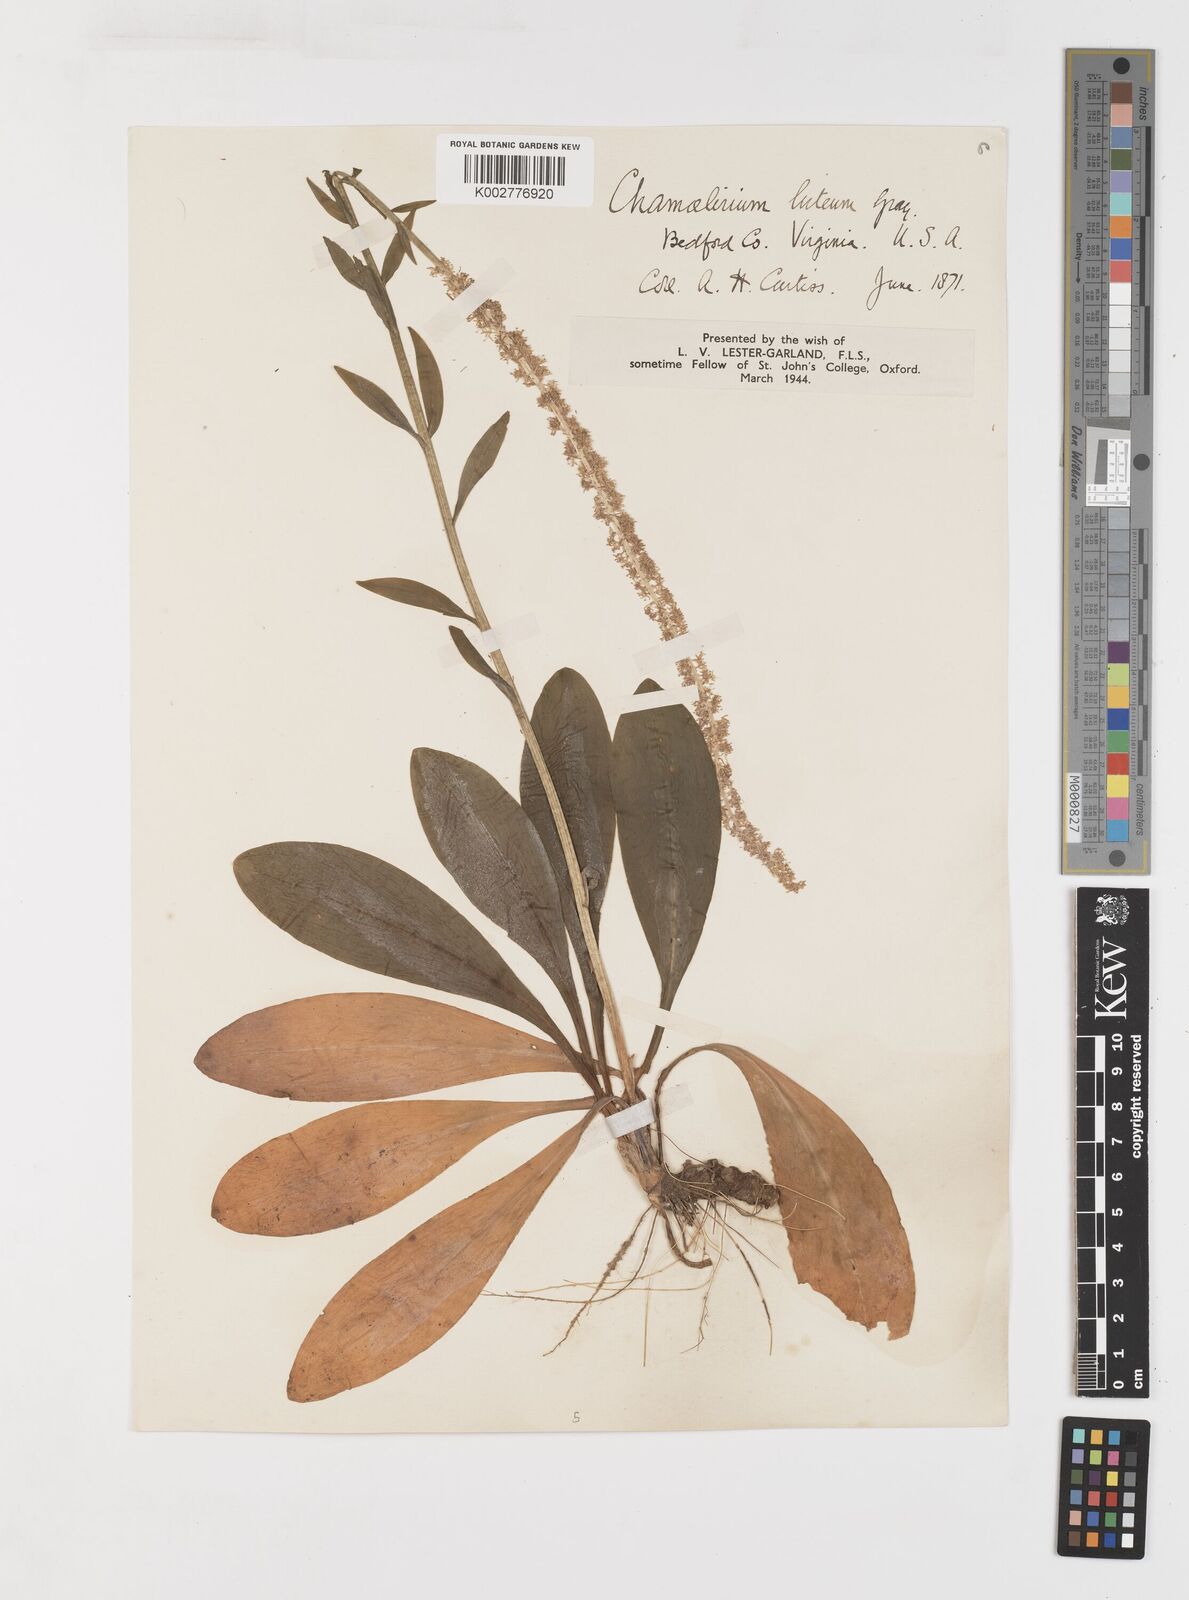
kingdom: Plantae
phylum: Tracheophyta
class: Liliopsida
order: Liliales
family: Melanthiaceae
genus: Chamaelirium
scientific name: Chamaelirium luteum
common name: Fairy-wand
